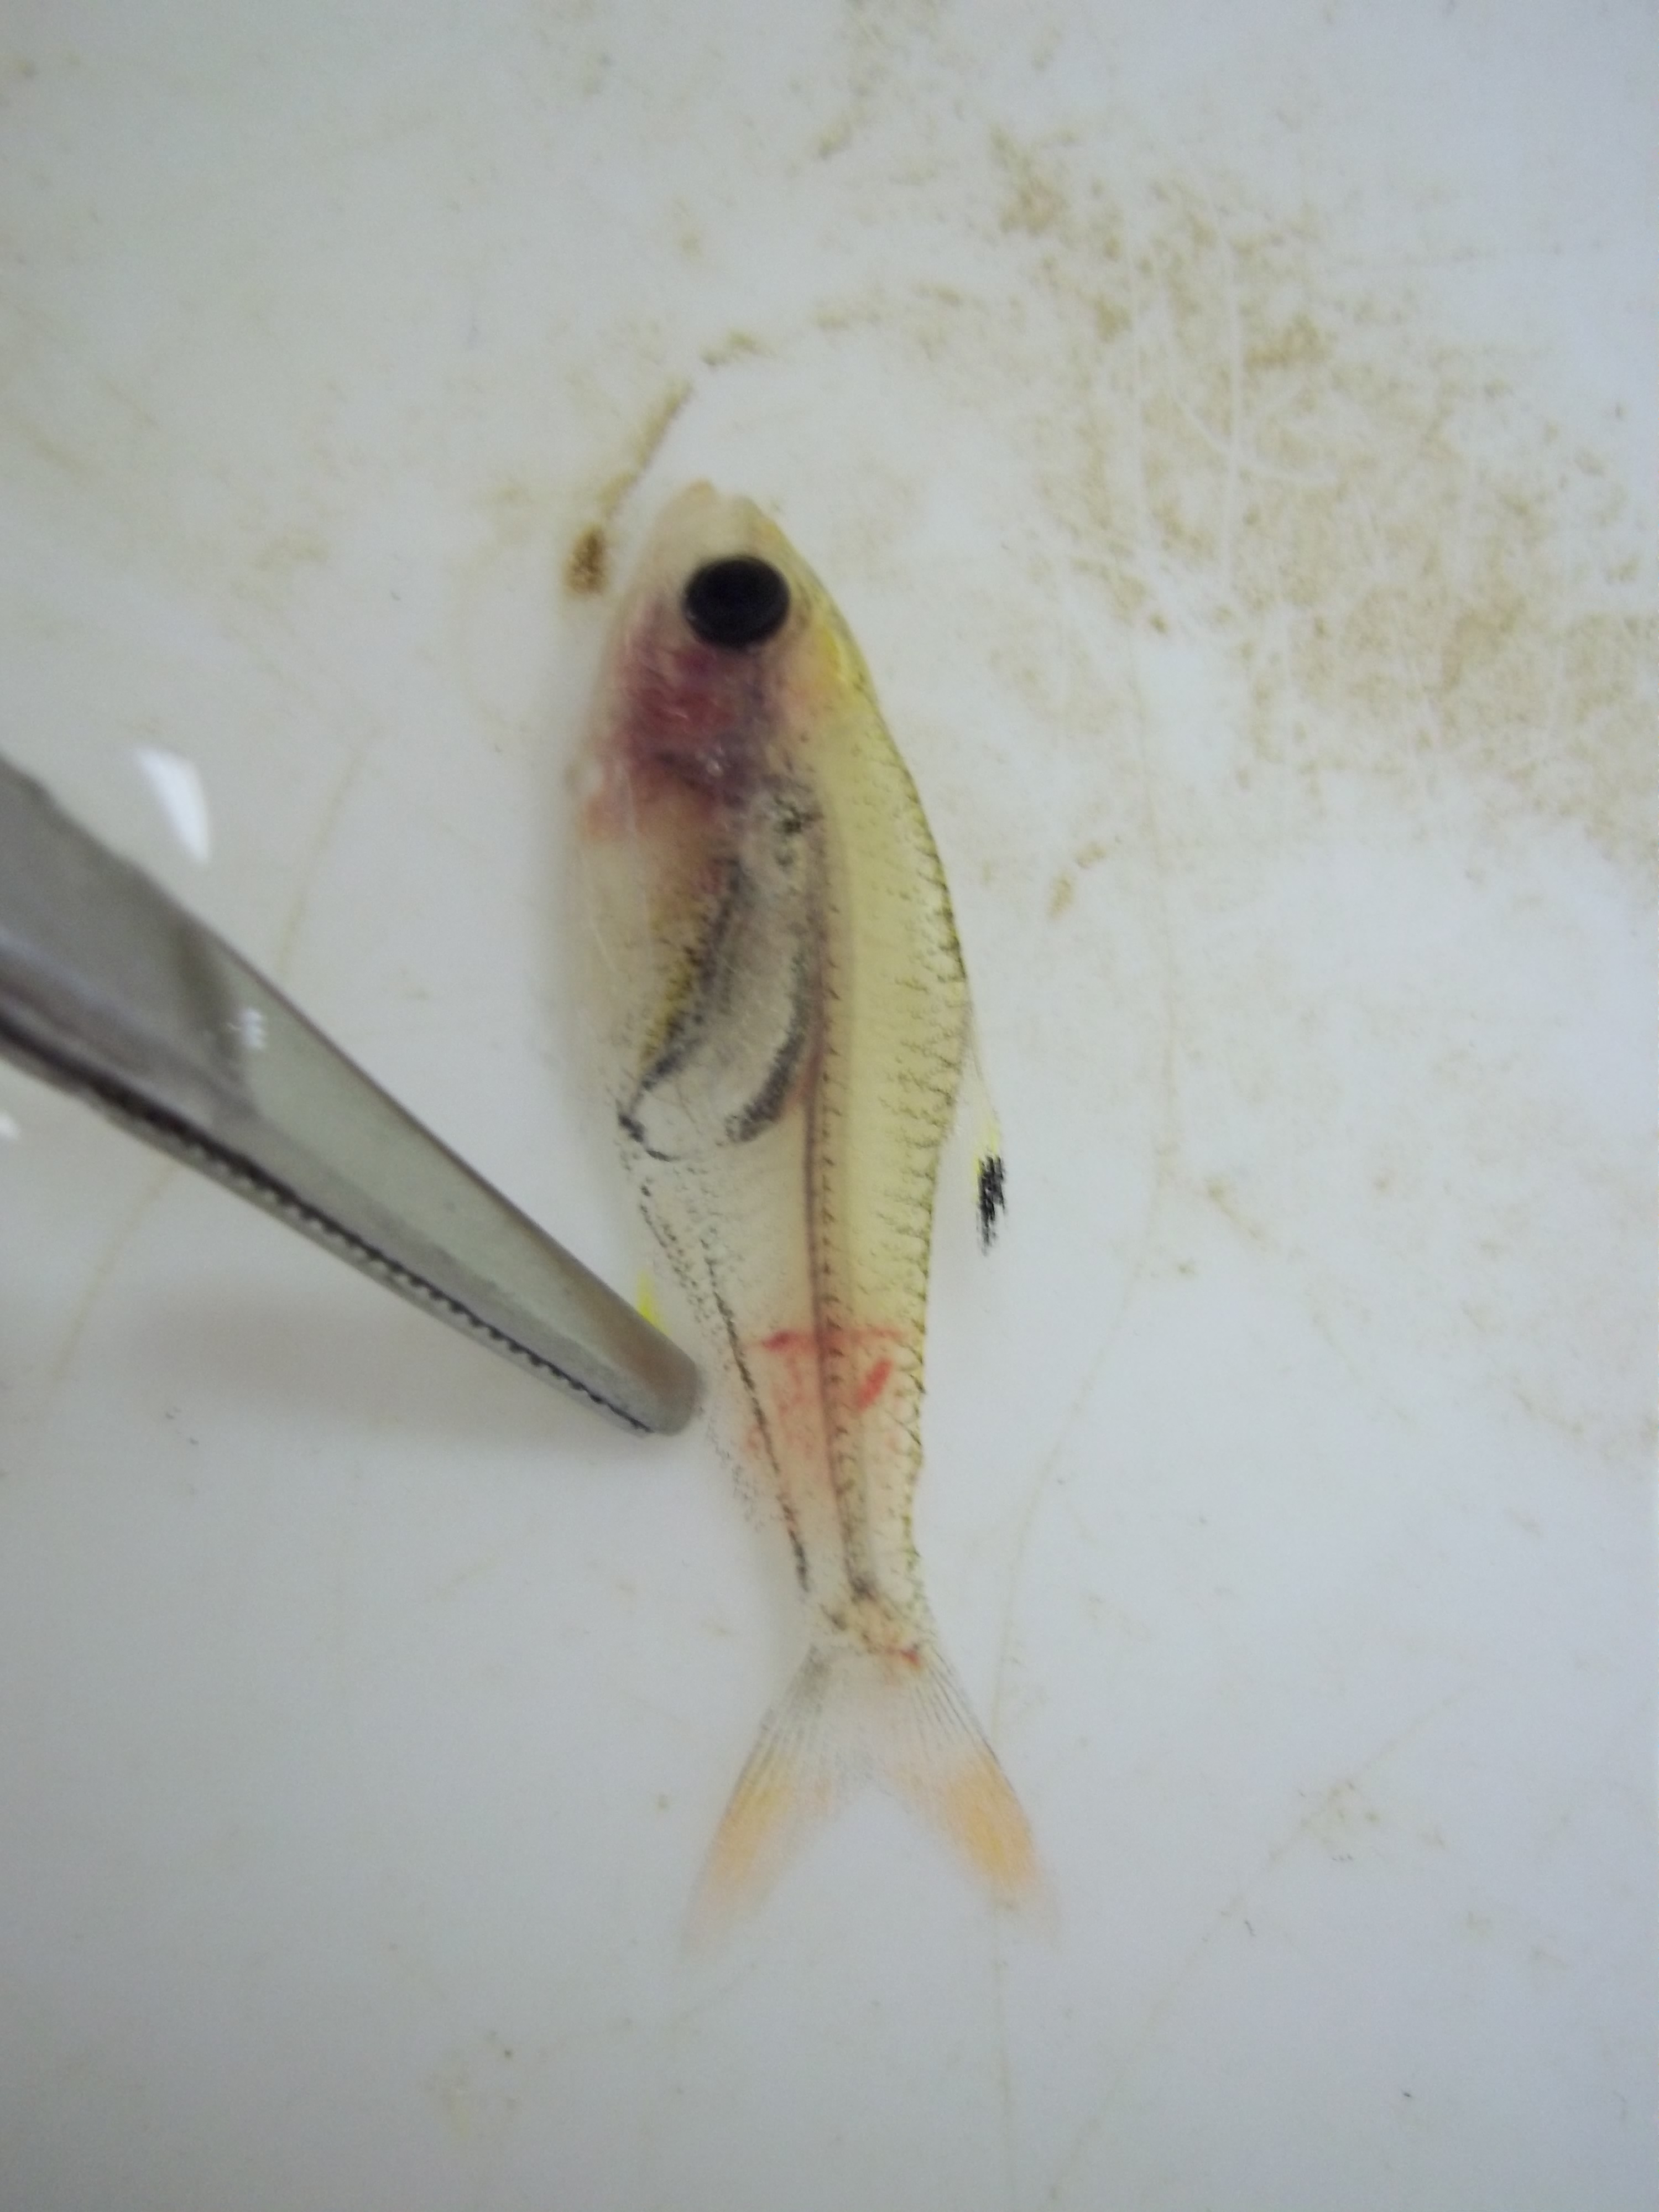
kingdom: Animalia
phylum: Chordata
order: Characiformes
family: Characidae
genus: Pristella
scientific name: Pristella maxillaris
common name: X-ray tetra
